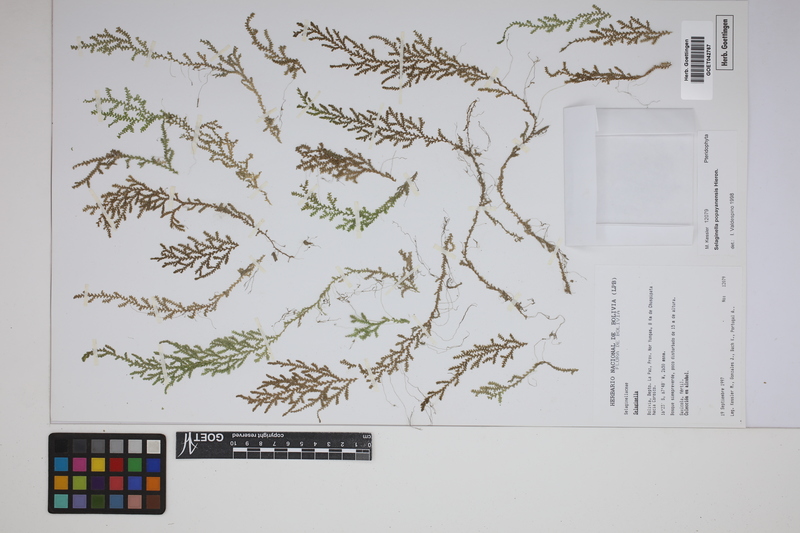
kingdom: Plantae
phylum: Tracheophyta
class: Lycopodiopsida
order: Selaginellales
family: Selaginellaceae
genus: Selaginella
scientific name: Selaginella popayanensis
